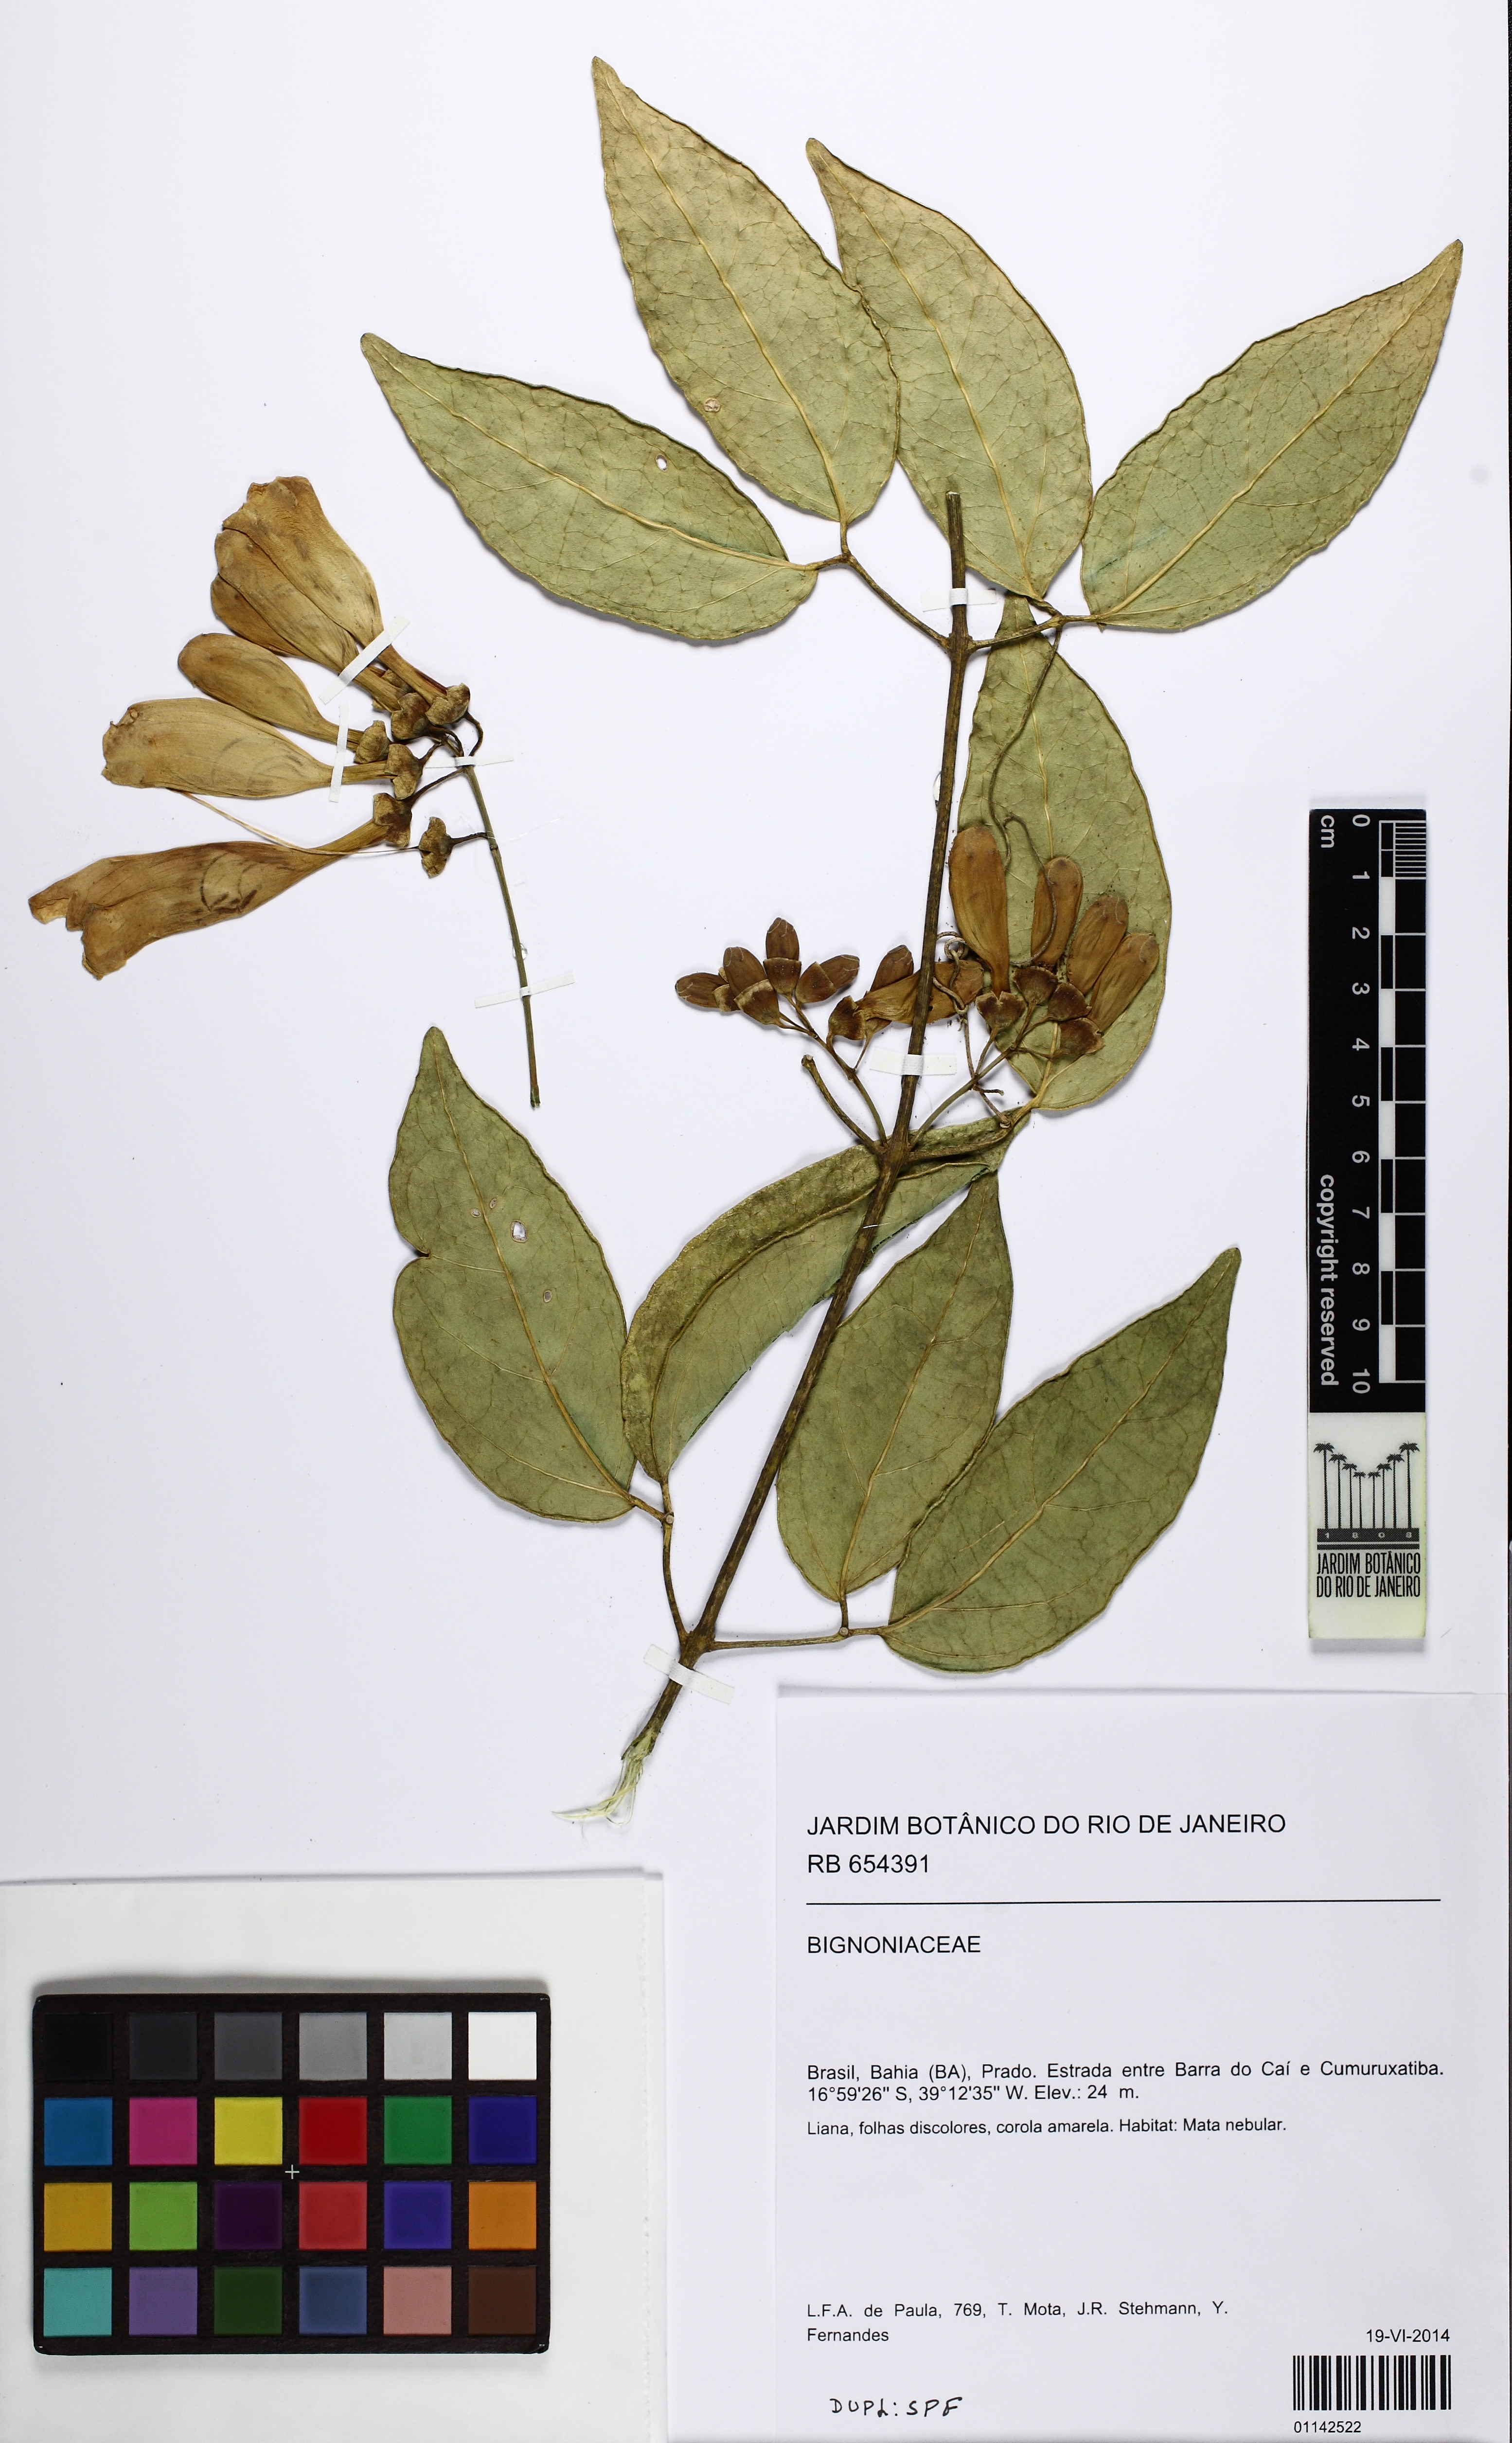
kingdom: Plantae
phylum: Tracheophyta
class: Magnoliopsida
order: Lamiales
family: Bignoniaceae
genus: Anemopaegma
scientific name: Anemopaegma
